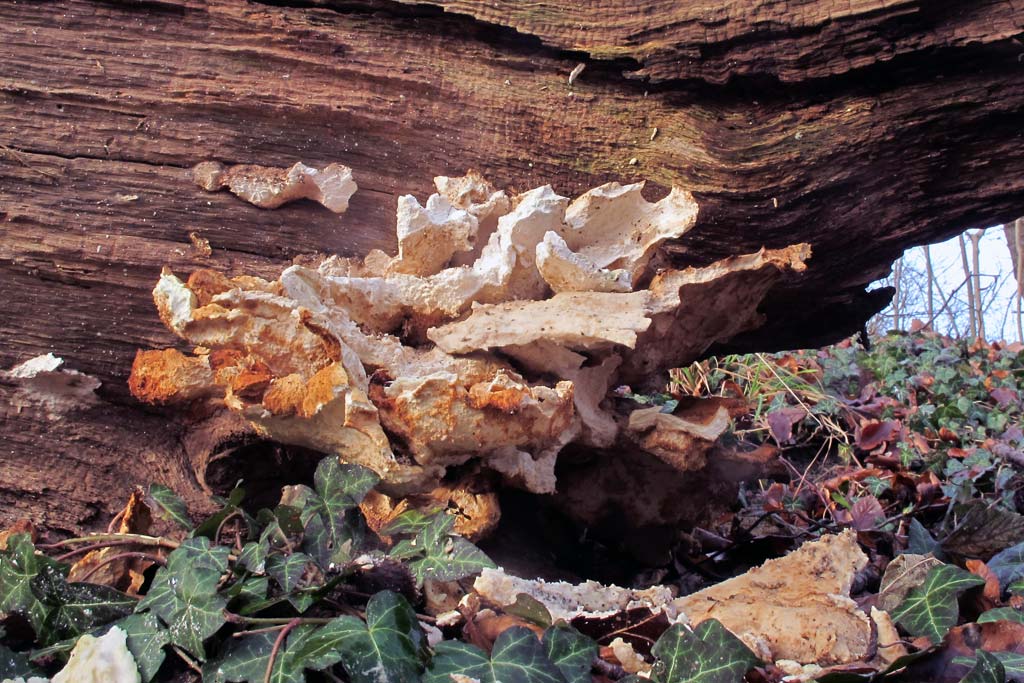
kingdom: Fungi
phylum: Basidiomycota
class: Agaricomycetes
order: Polyporales
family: Laetiporaceae
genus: Laetiporus
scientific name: Laetiporus sulphureus
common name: svovlporesvamp
